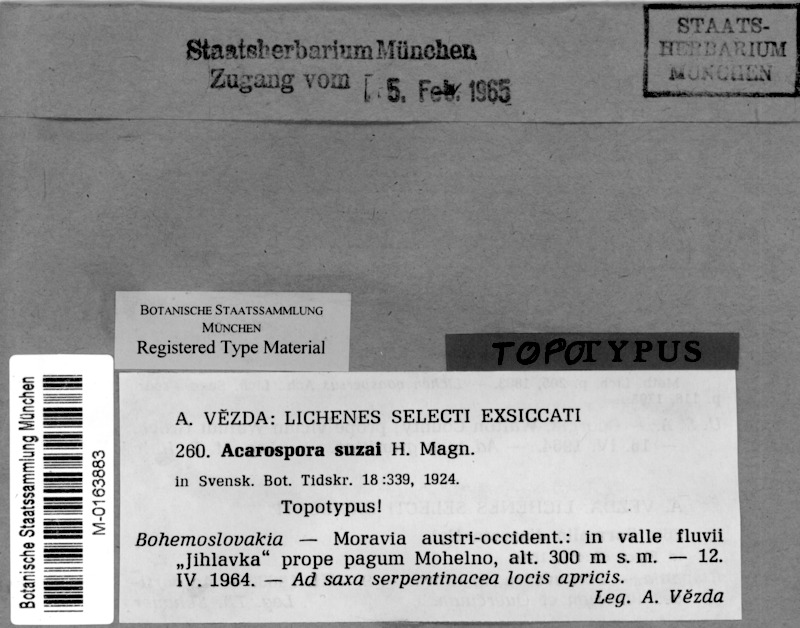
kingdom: Fungi
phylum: Ascomycota
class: Lecanoromycetes
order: Acarosporales
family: Acarosporaceae
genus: Acarospora
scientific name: Acarospora suzai
